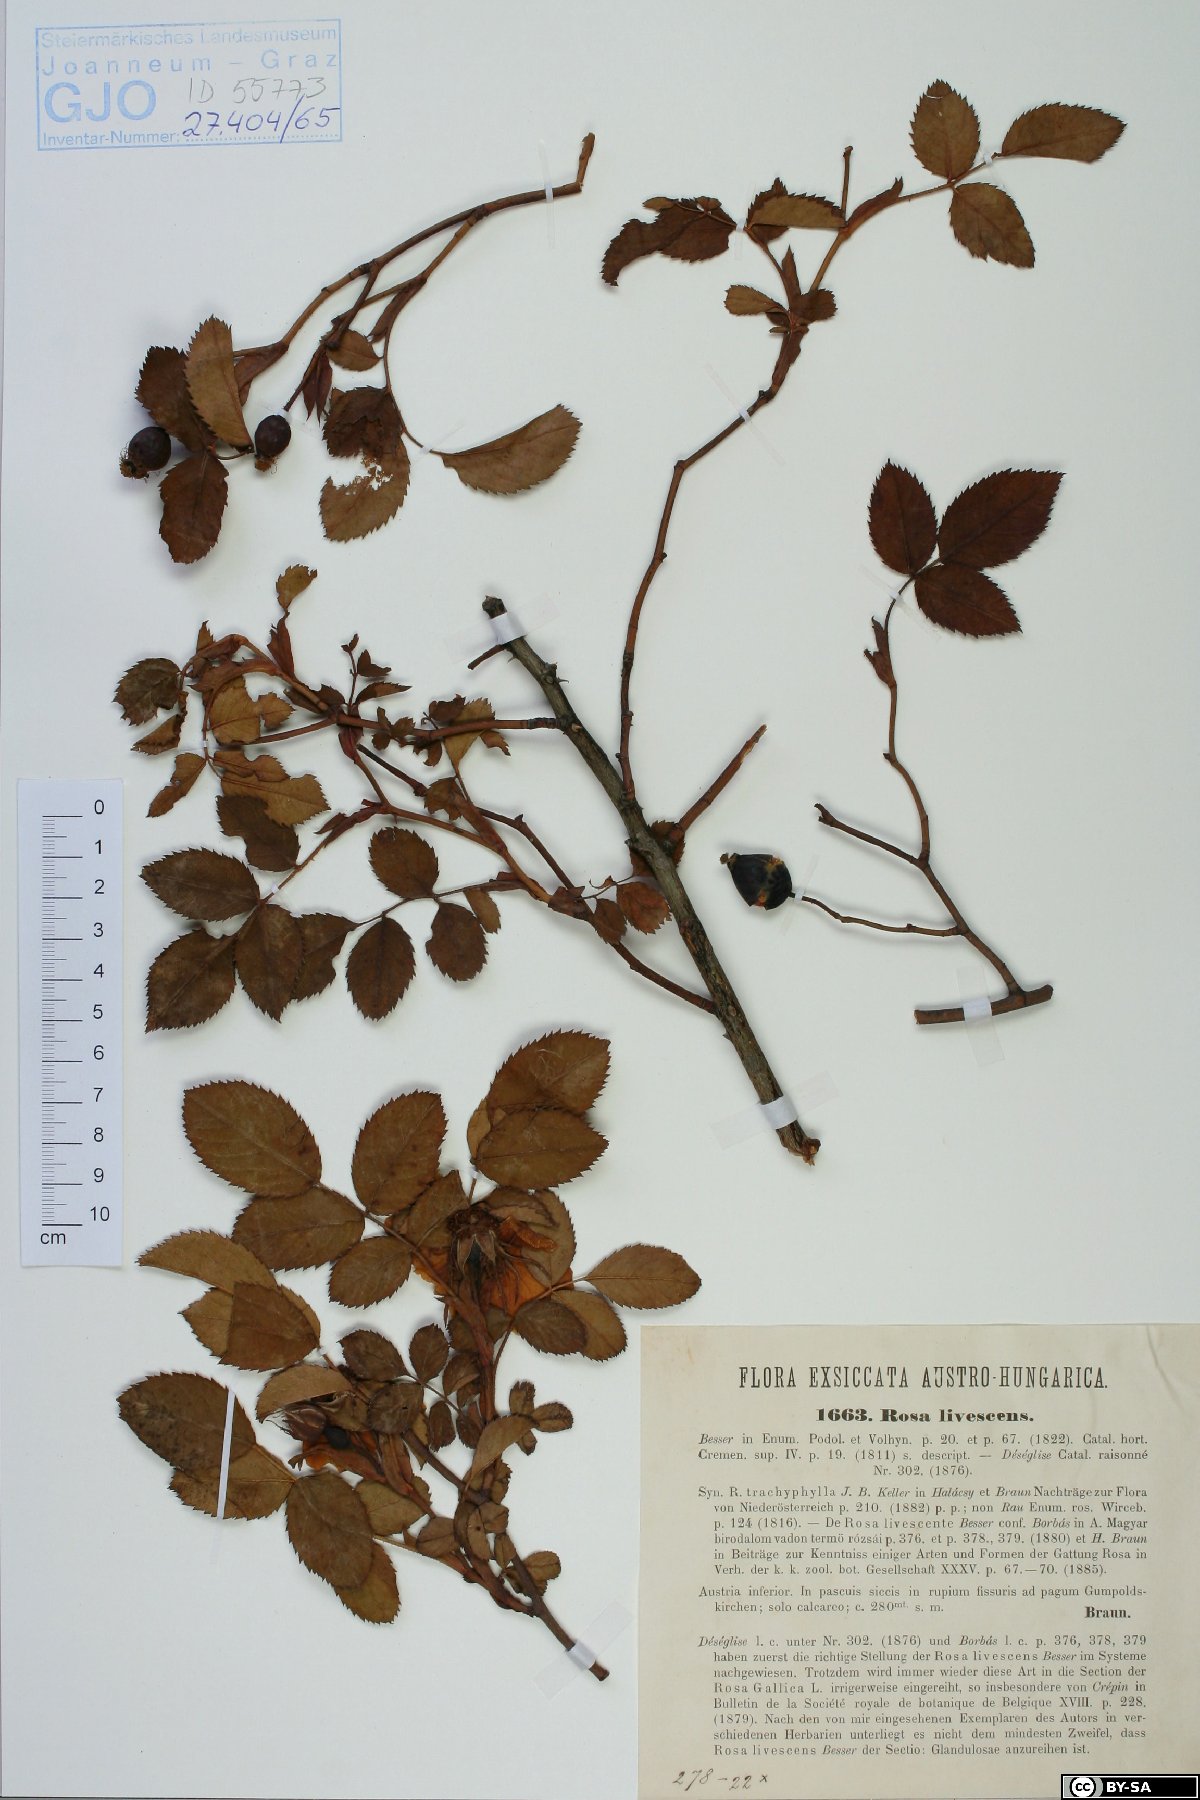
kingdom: Plantae
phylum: Tracheophyta
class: Magnoliopsida
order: Rosales
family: Rosaceae
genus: Rosa
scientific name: Rosa marginata
